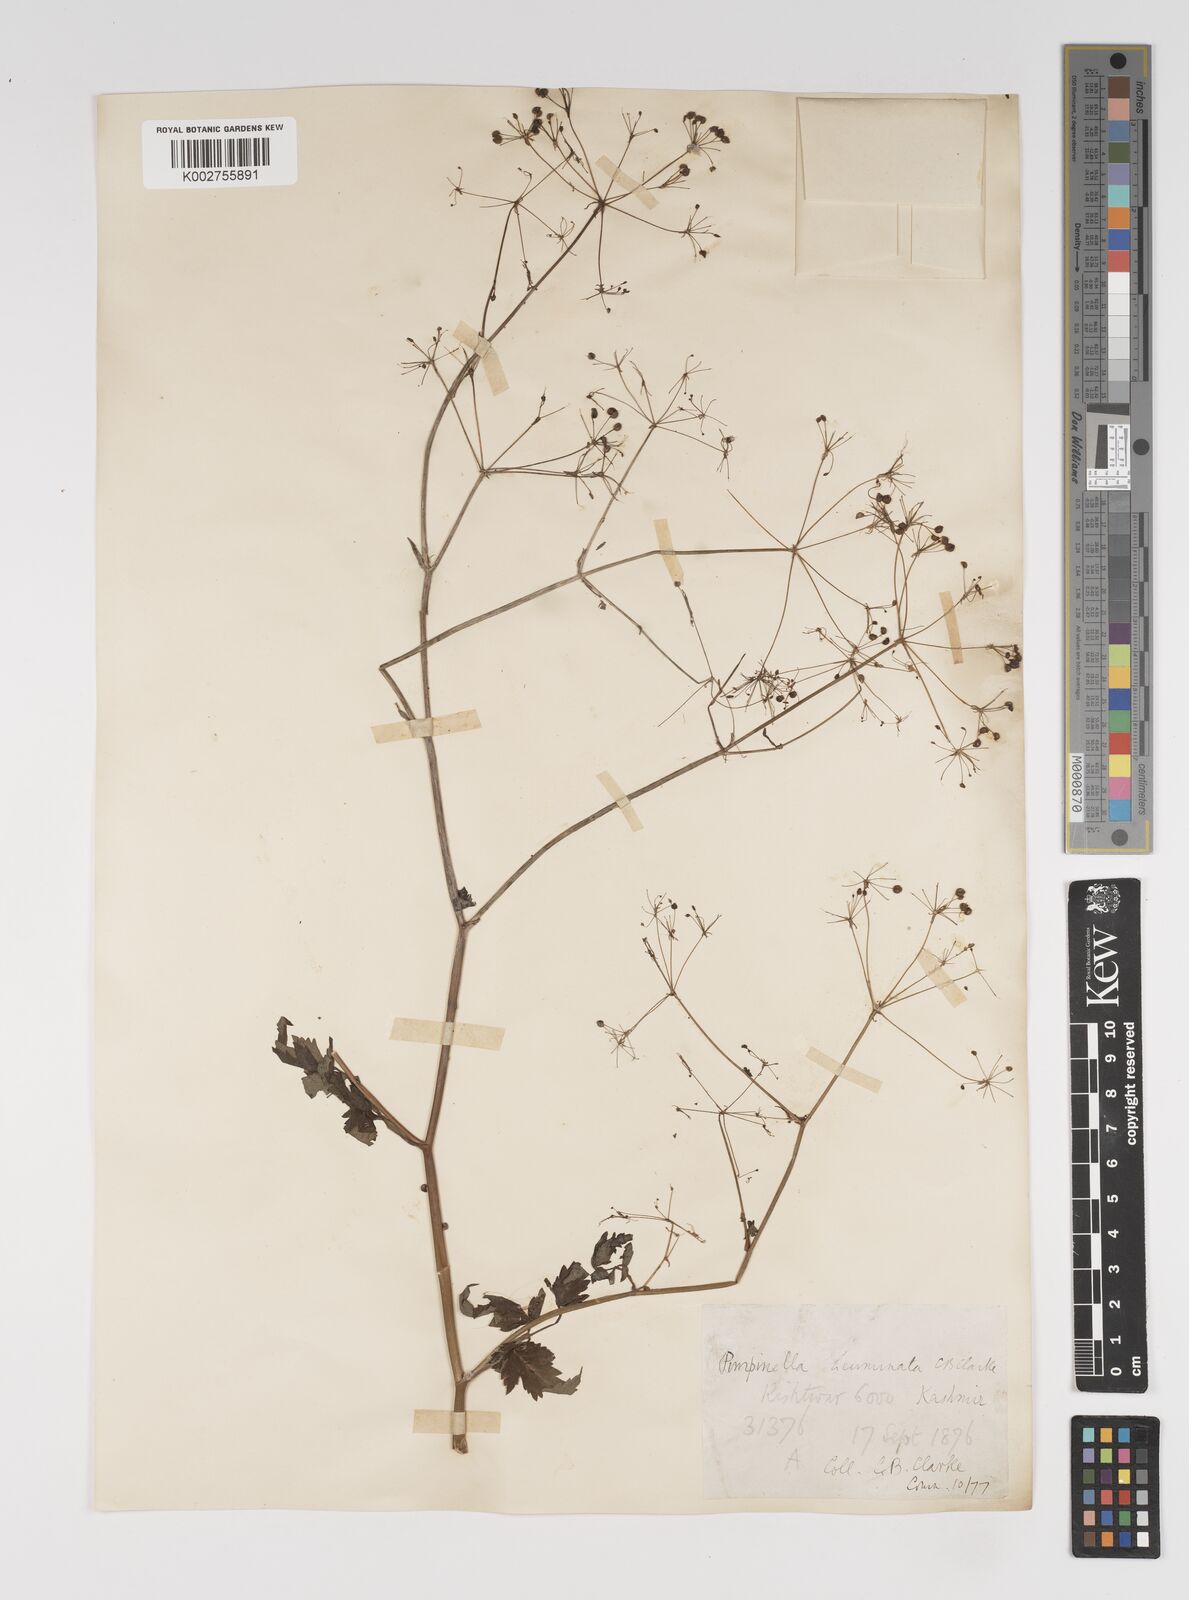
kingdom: Plantae
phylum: Tracheophyta
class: Magnoliopsida
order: Apiales
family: Apiaceae
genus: Pimpinella
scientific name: Pimpinella acuminata
